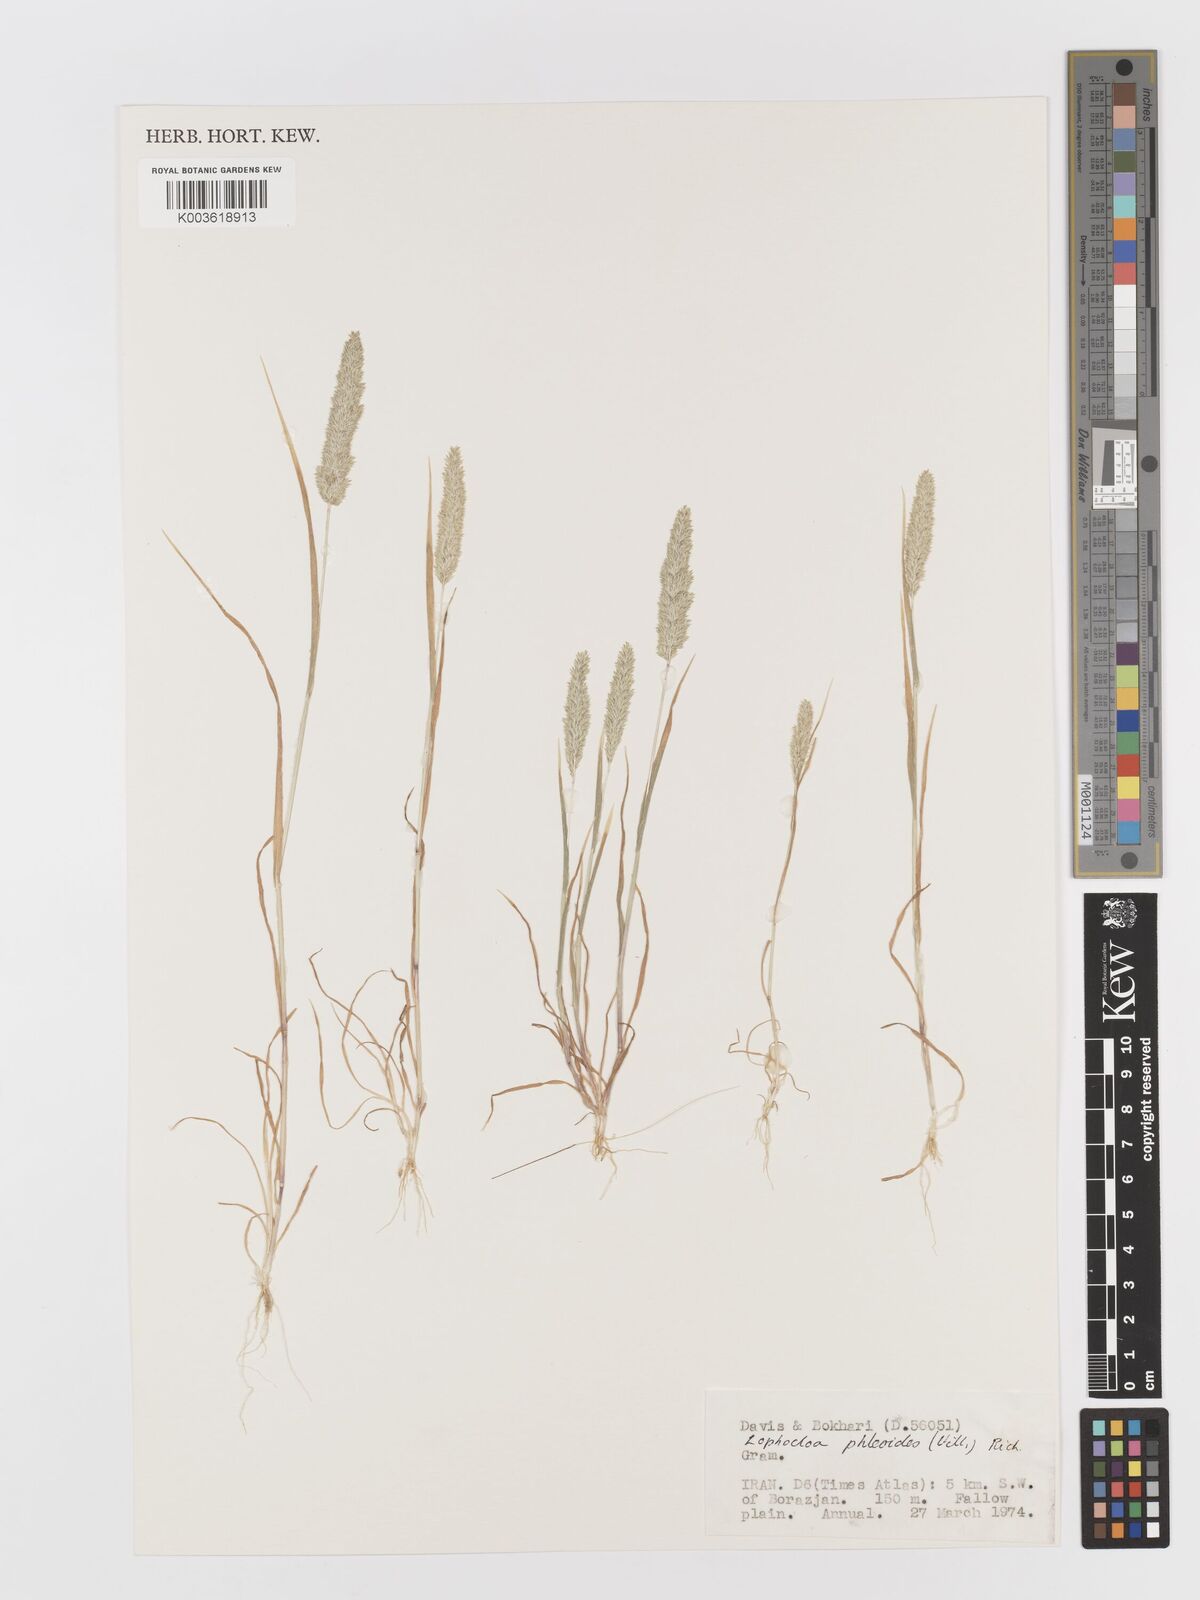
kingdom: Plantae
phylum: Tracheophyta
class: Liliopsida
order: Poales
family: Poaceae
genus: Rostraria
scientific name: Rostraria cristata
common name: Mediterranean hair-grass
